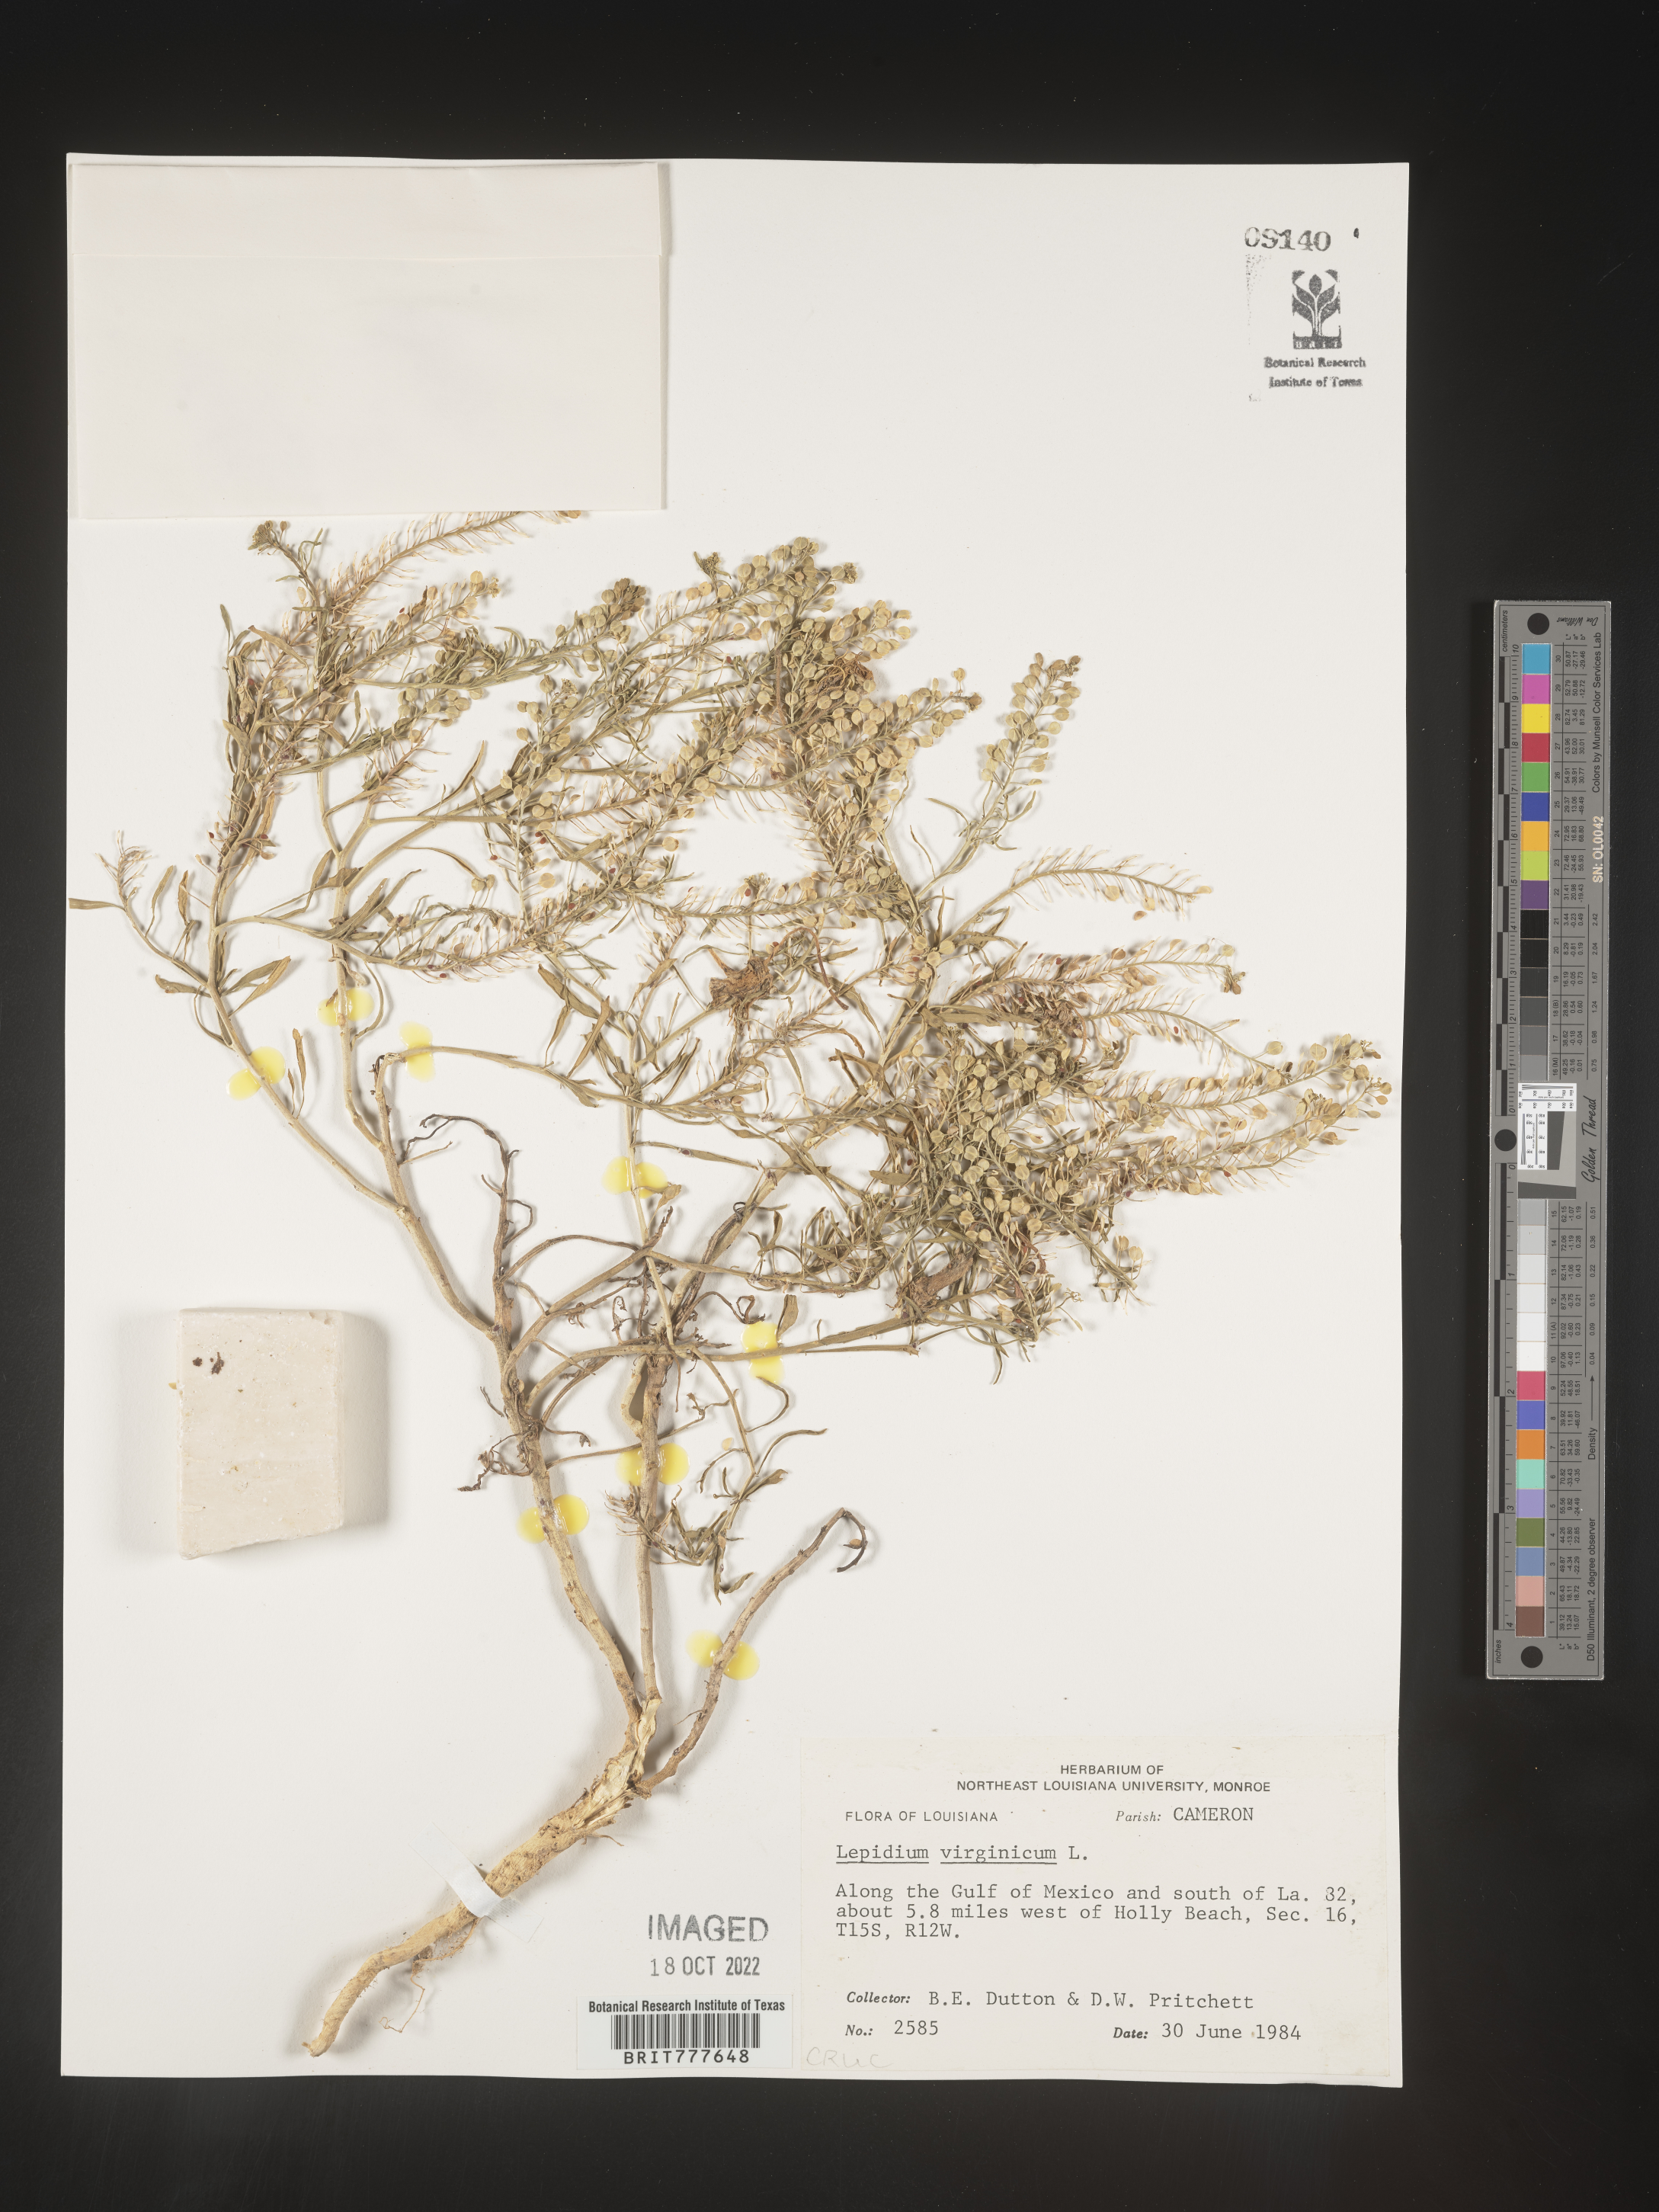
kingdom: Plantae
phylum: Tracheophyta
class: Magnoliopsida
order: Brassicales
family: Brassicaceae
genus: Lepidium
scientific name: Lepidium virginicum
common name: Least pepperwort
